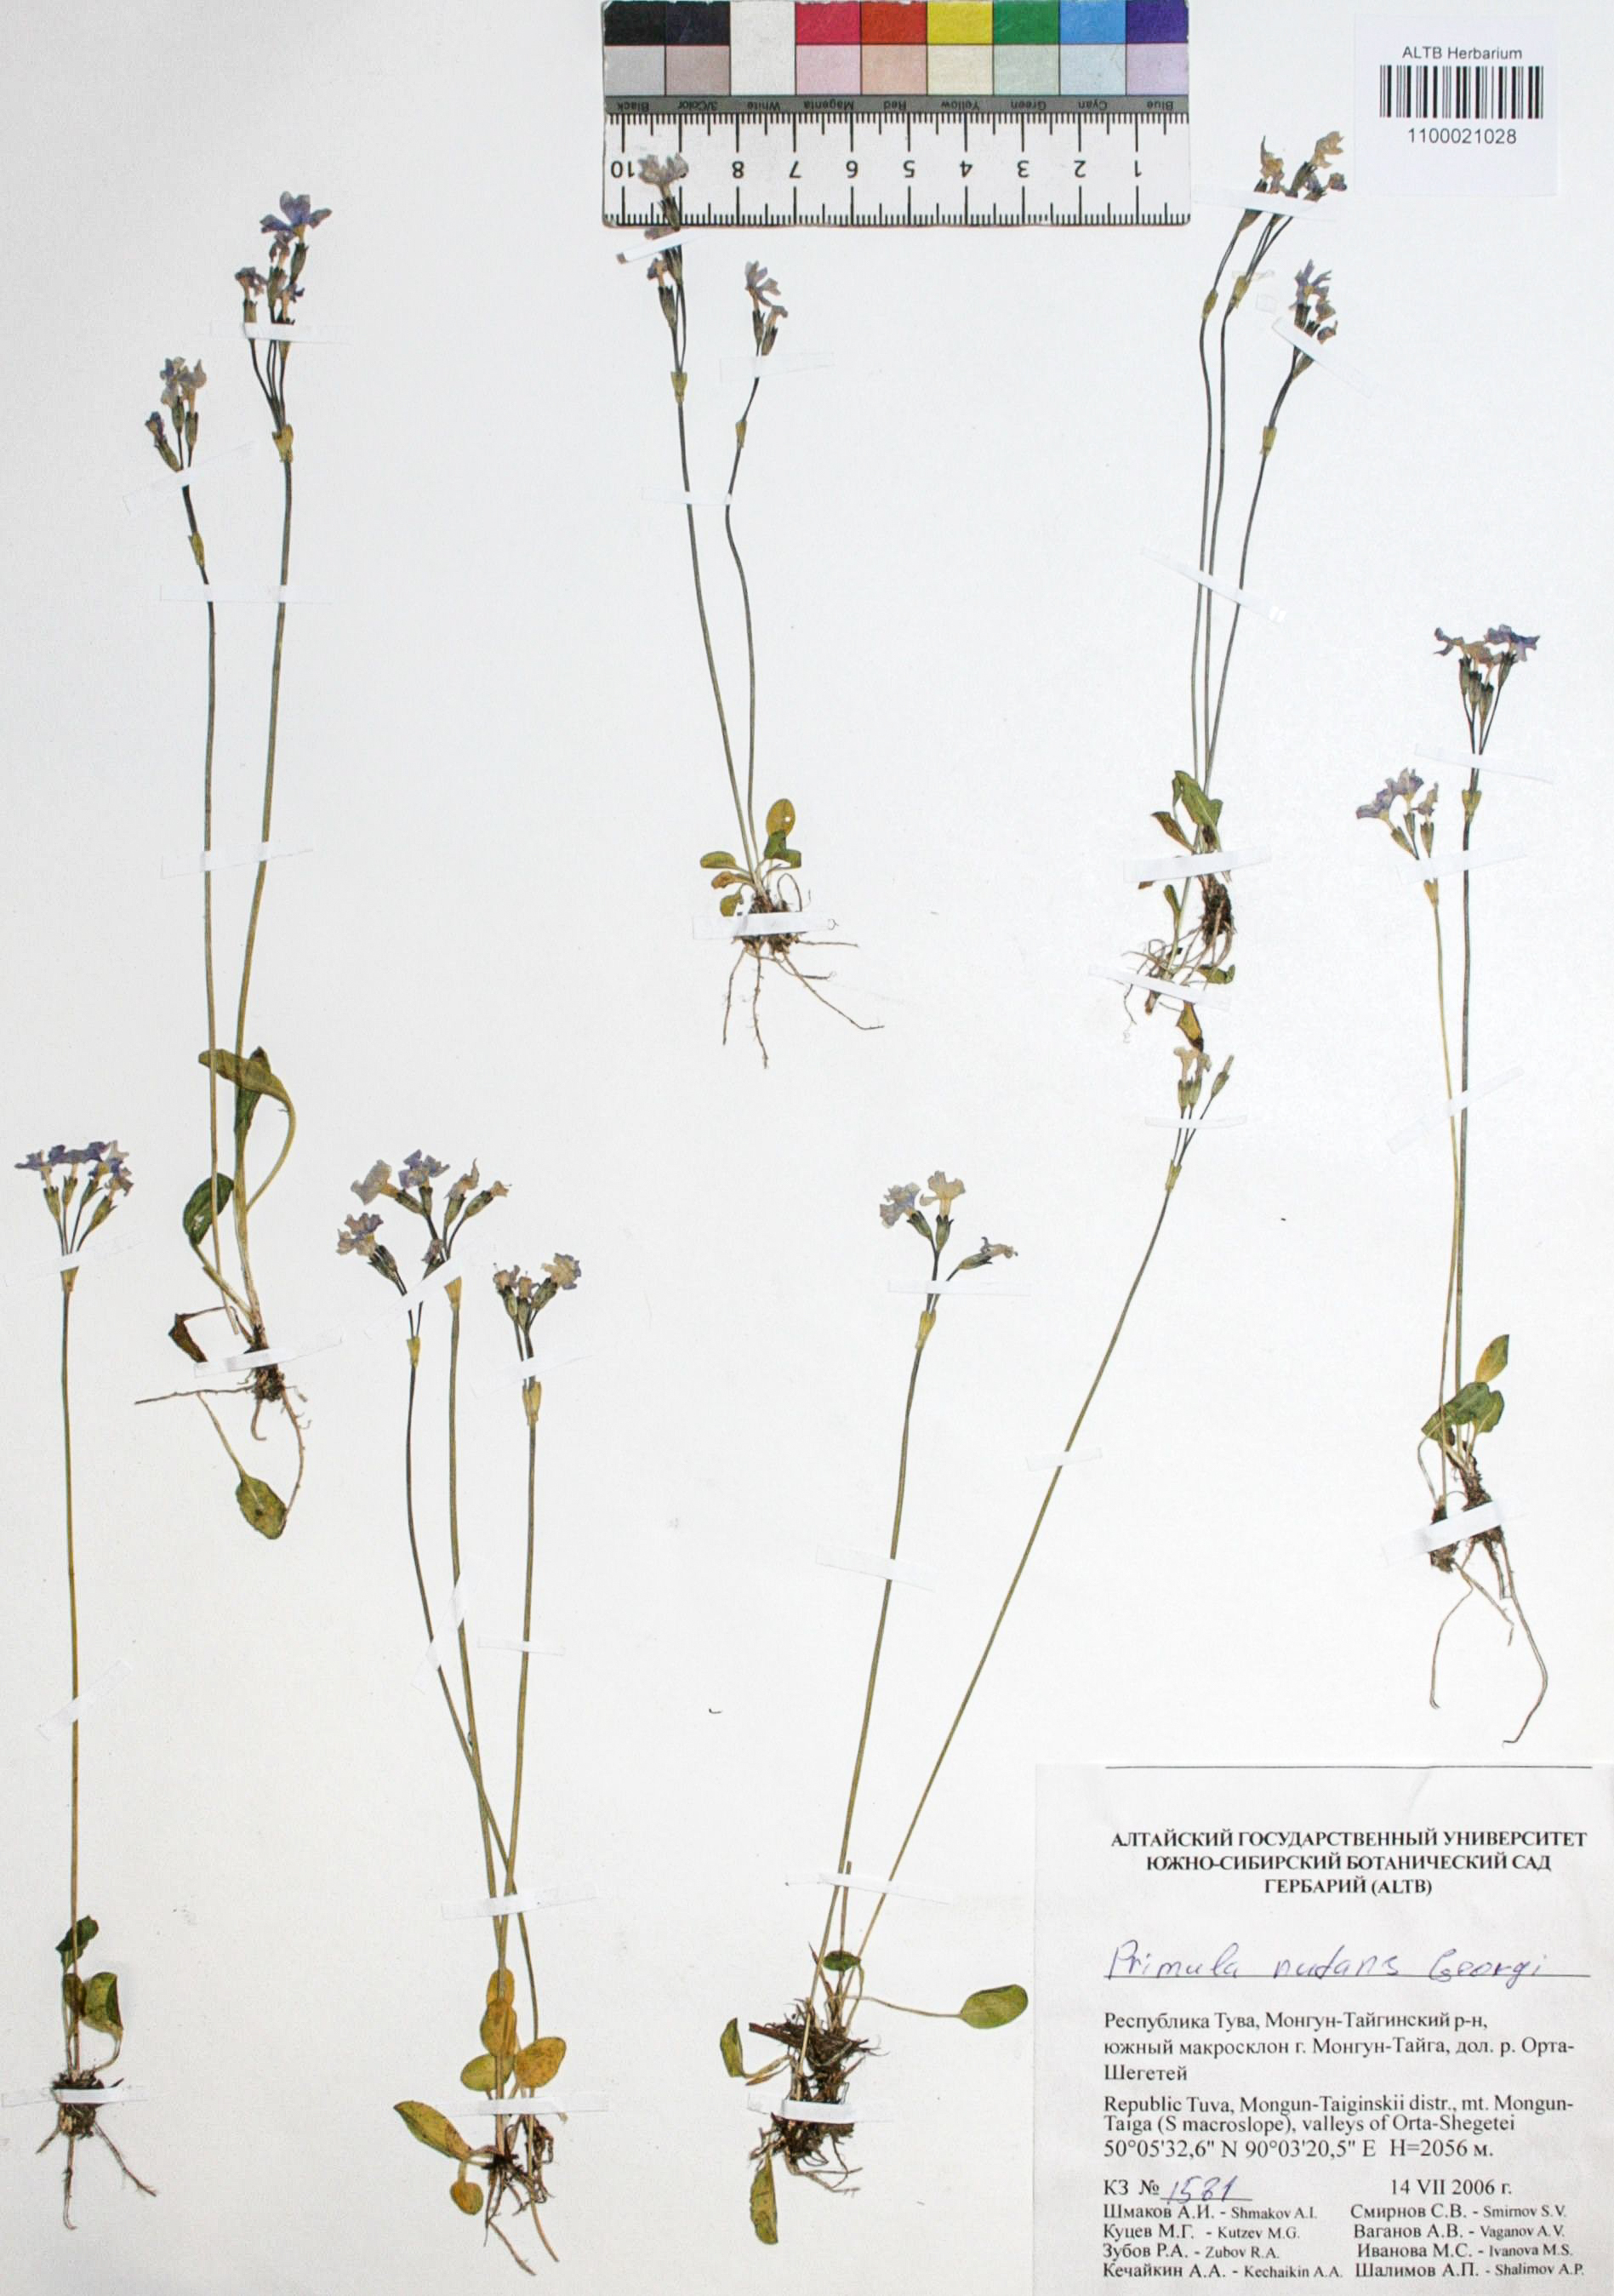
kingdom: Plantae
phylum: Tracheophyta
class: Magnoliopsida
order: Ericales
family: Primulaceae
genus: Primula
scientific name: Primula nutans
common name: Siberian primrose
